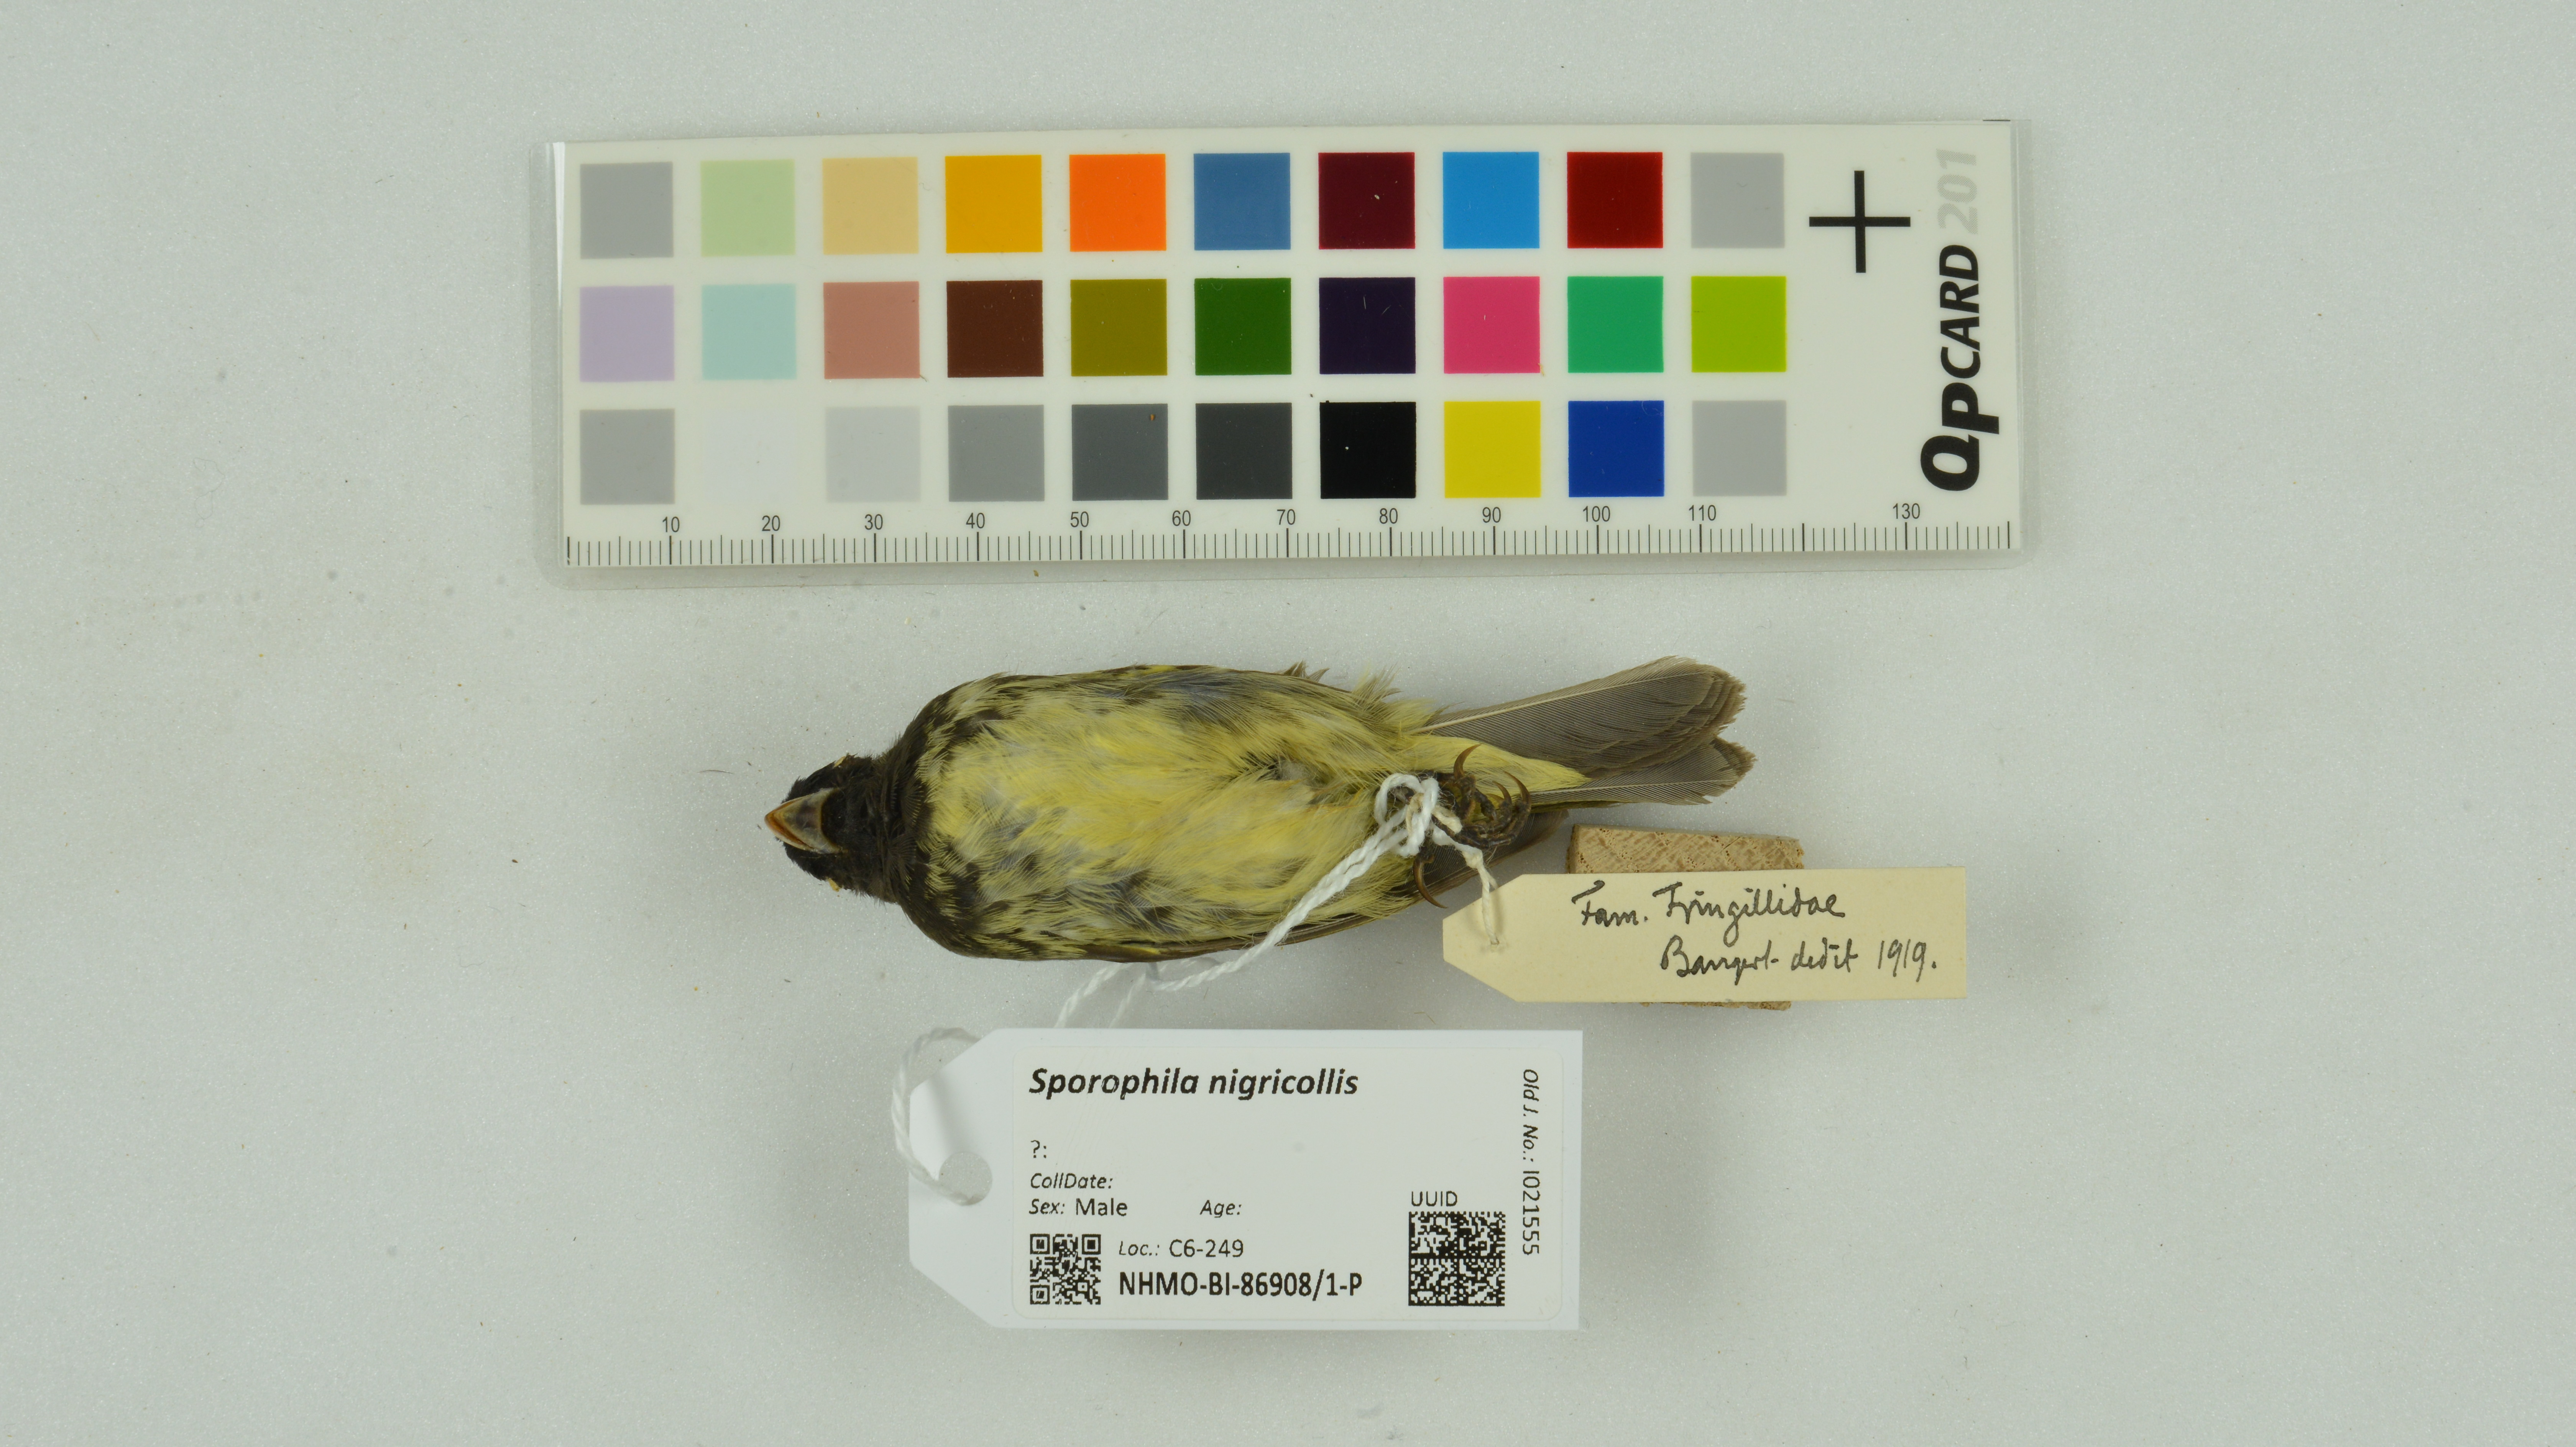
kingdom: Animalia
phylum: Chordata
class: Aves
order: Passeriformes
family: Thraupidae
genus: Sporophila
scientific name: Sporophila nigricollis
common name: Yellow-bellied seedeater
